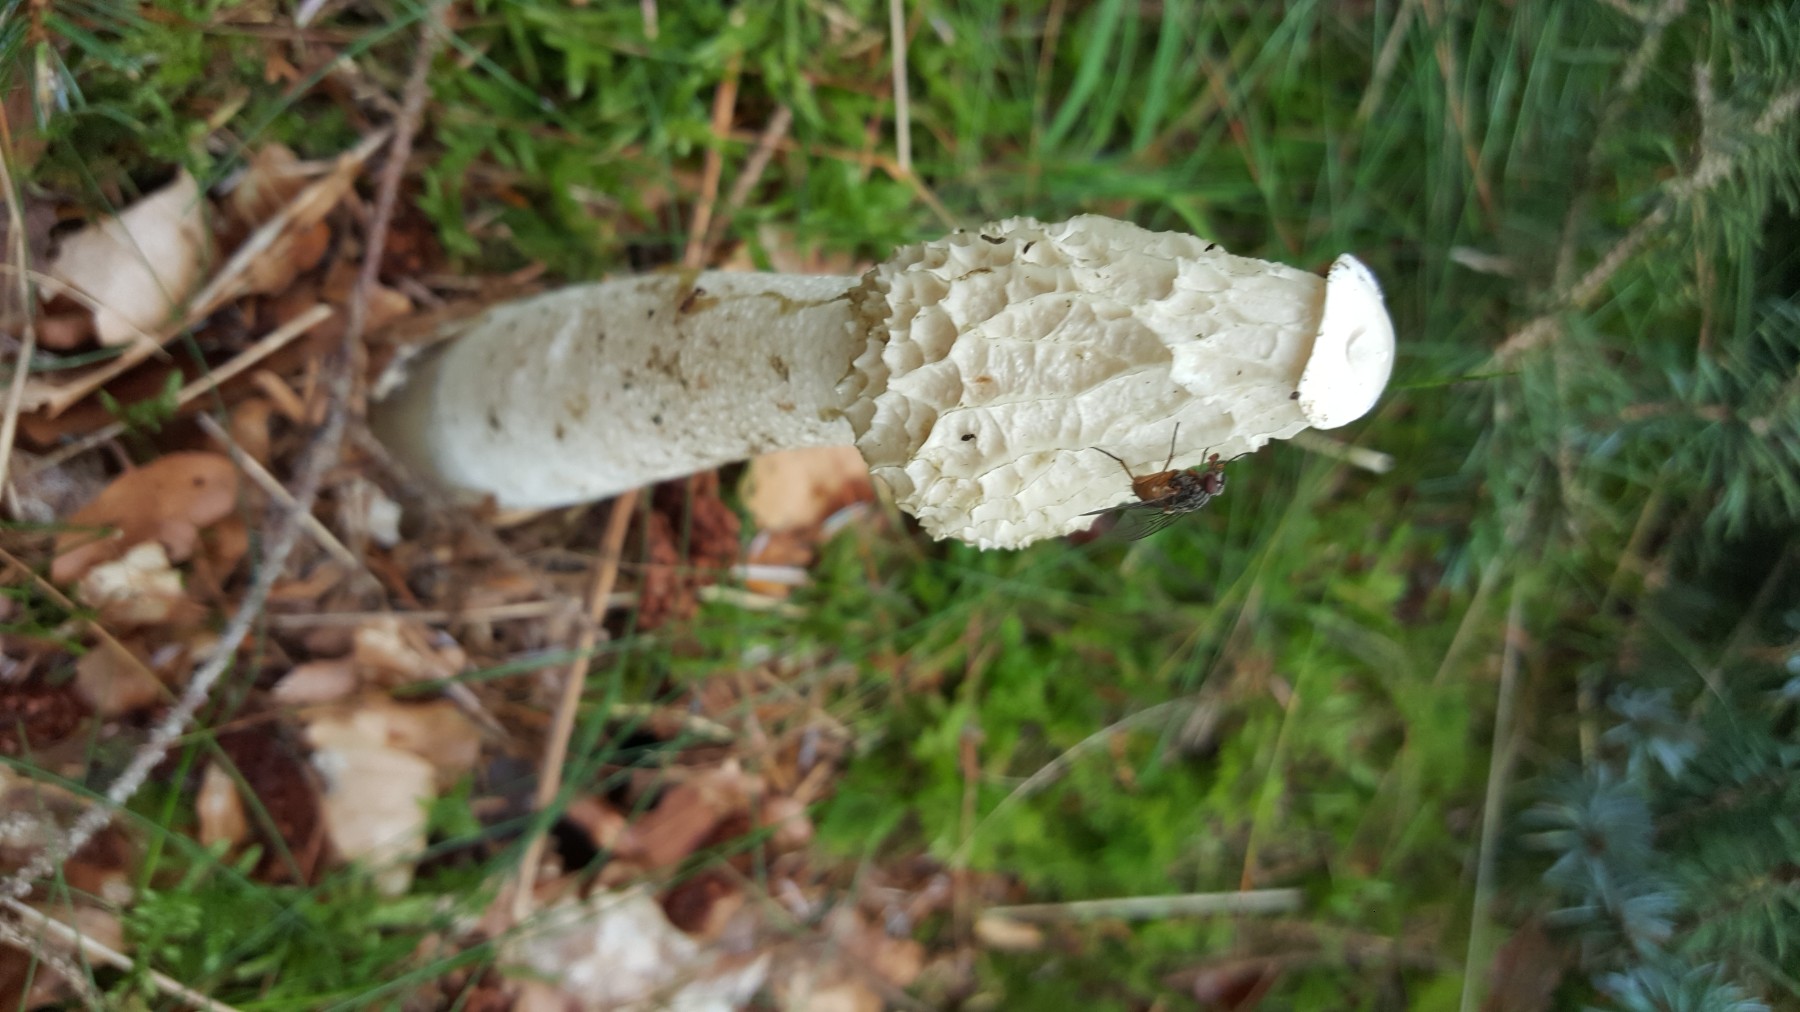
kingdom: Fungi
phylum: Basidiomycota
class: Agaricomycetes
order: Phallales
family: Phallaceae
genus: Phallus
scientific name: Phallus impudicus
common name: almindelig stinksvamp
